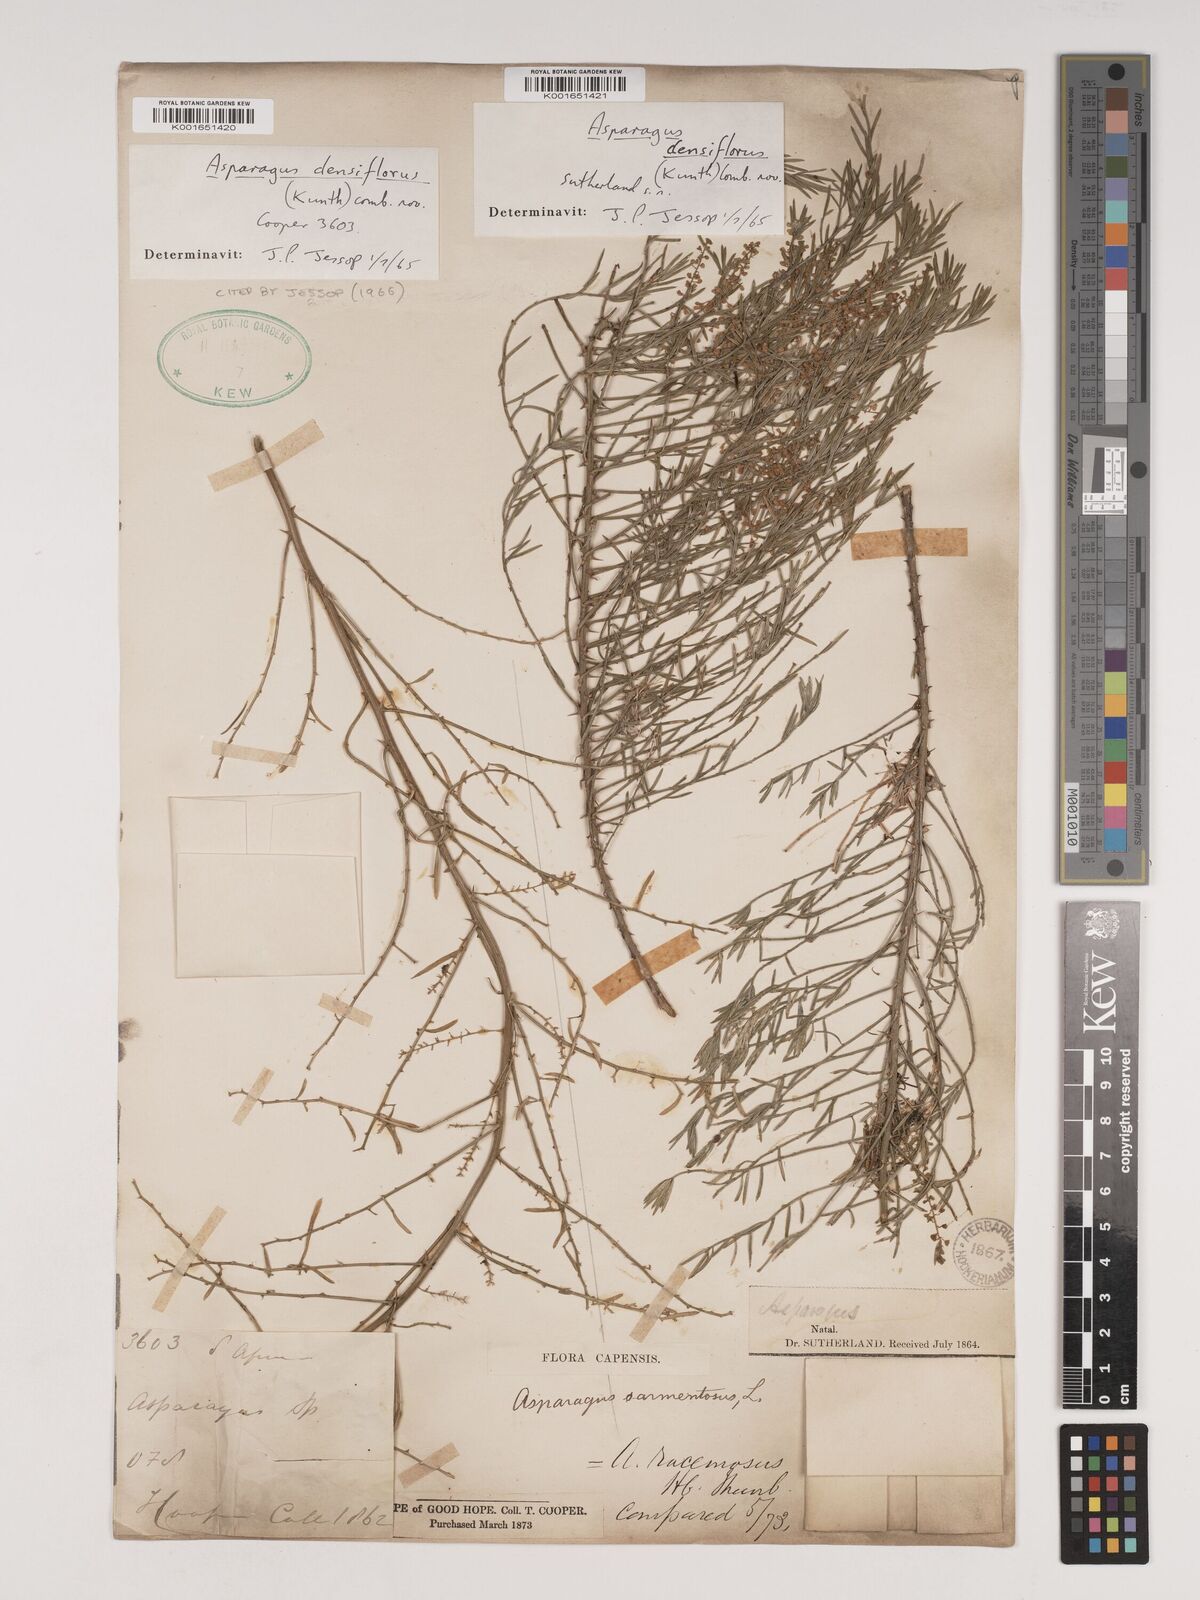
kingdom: Plantae
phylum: Tracheophyta
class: Liliopsida
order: Asparagales
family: Asparagaceae
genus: Asparagus
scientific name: Asparagus densiflorus
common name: Asparagus fern
